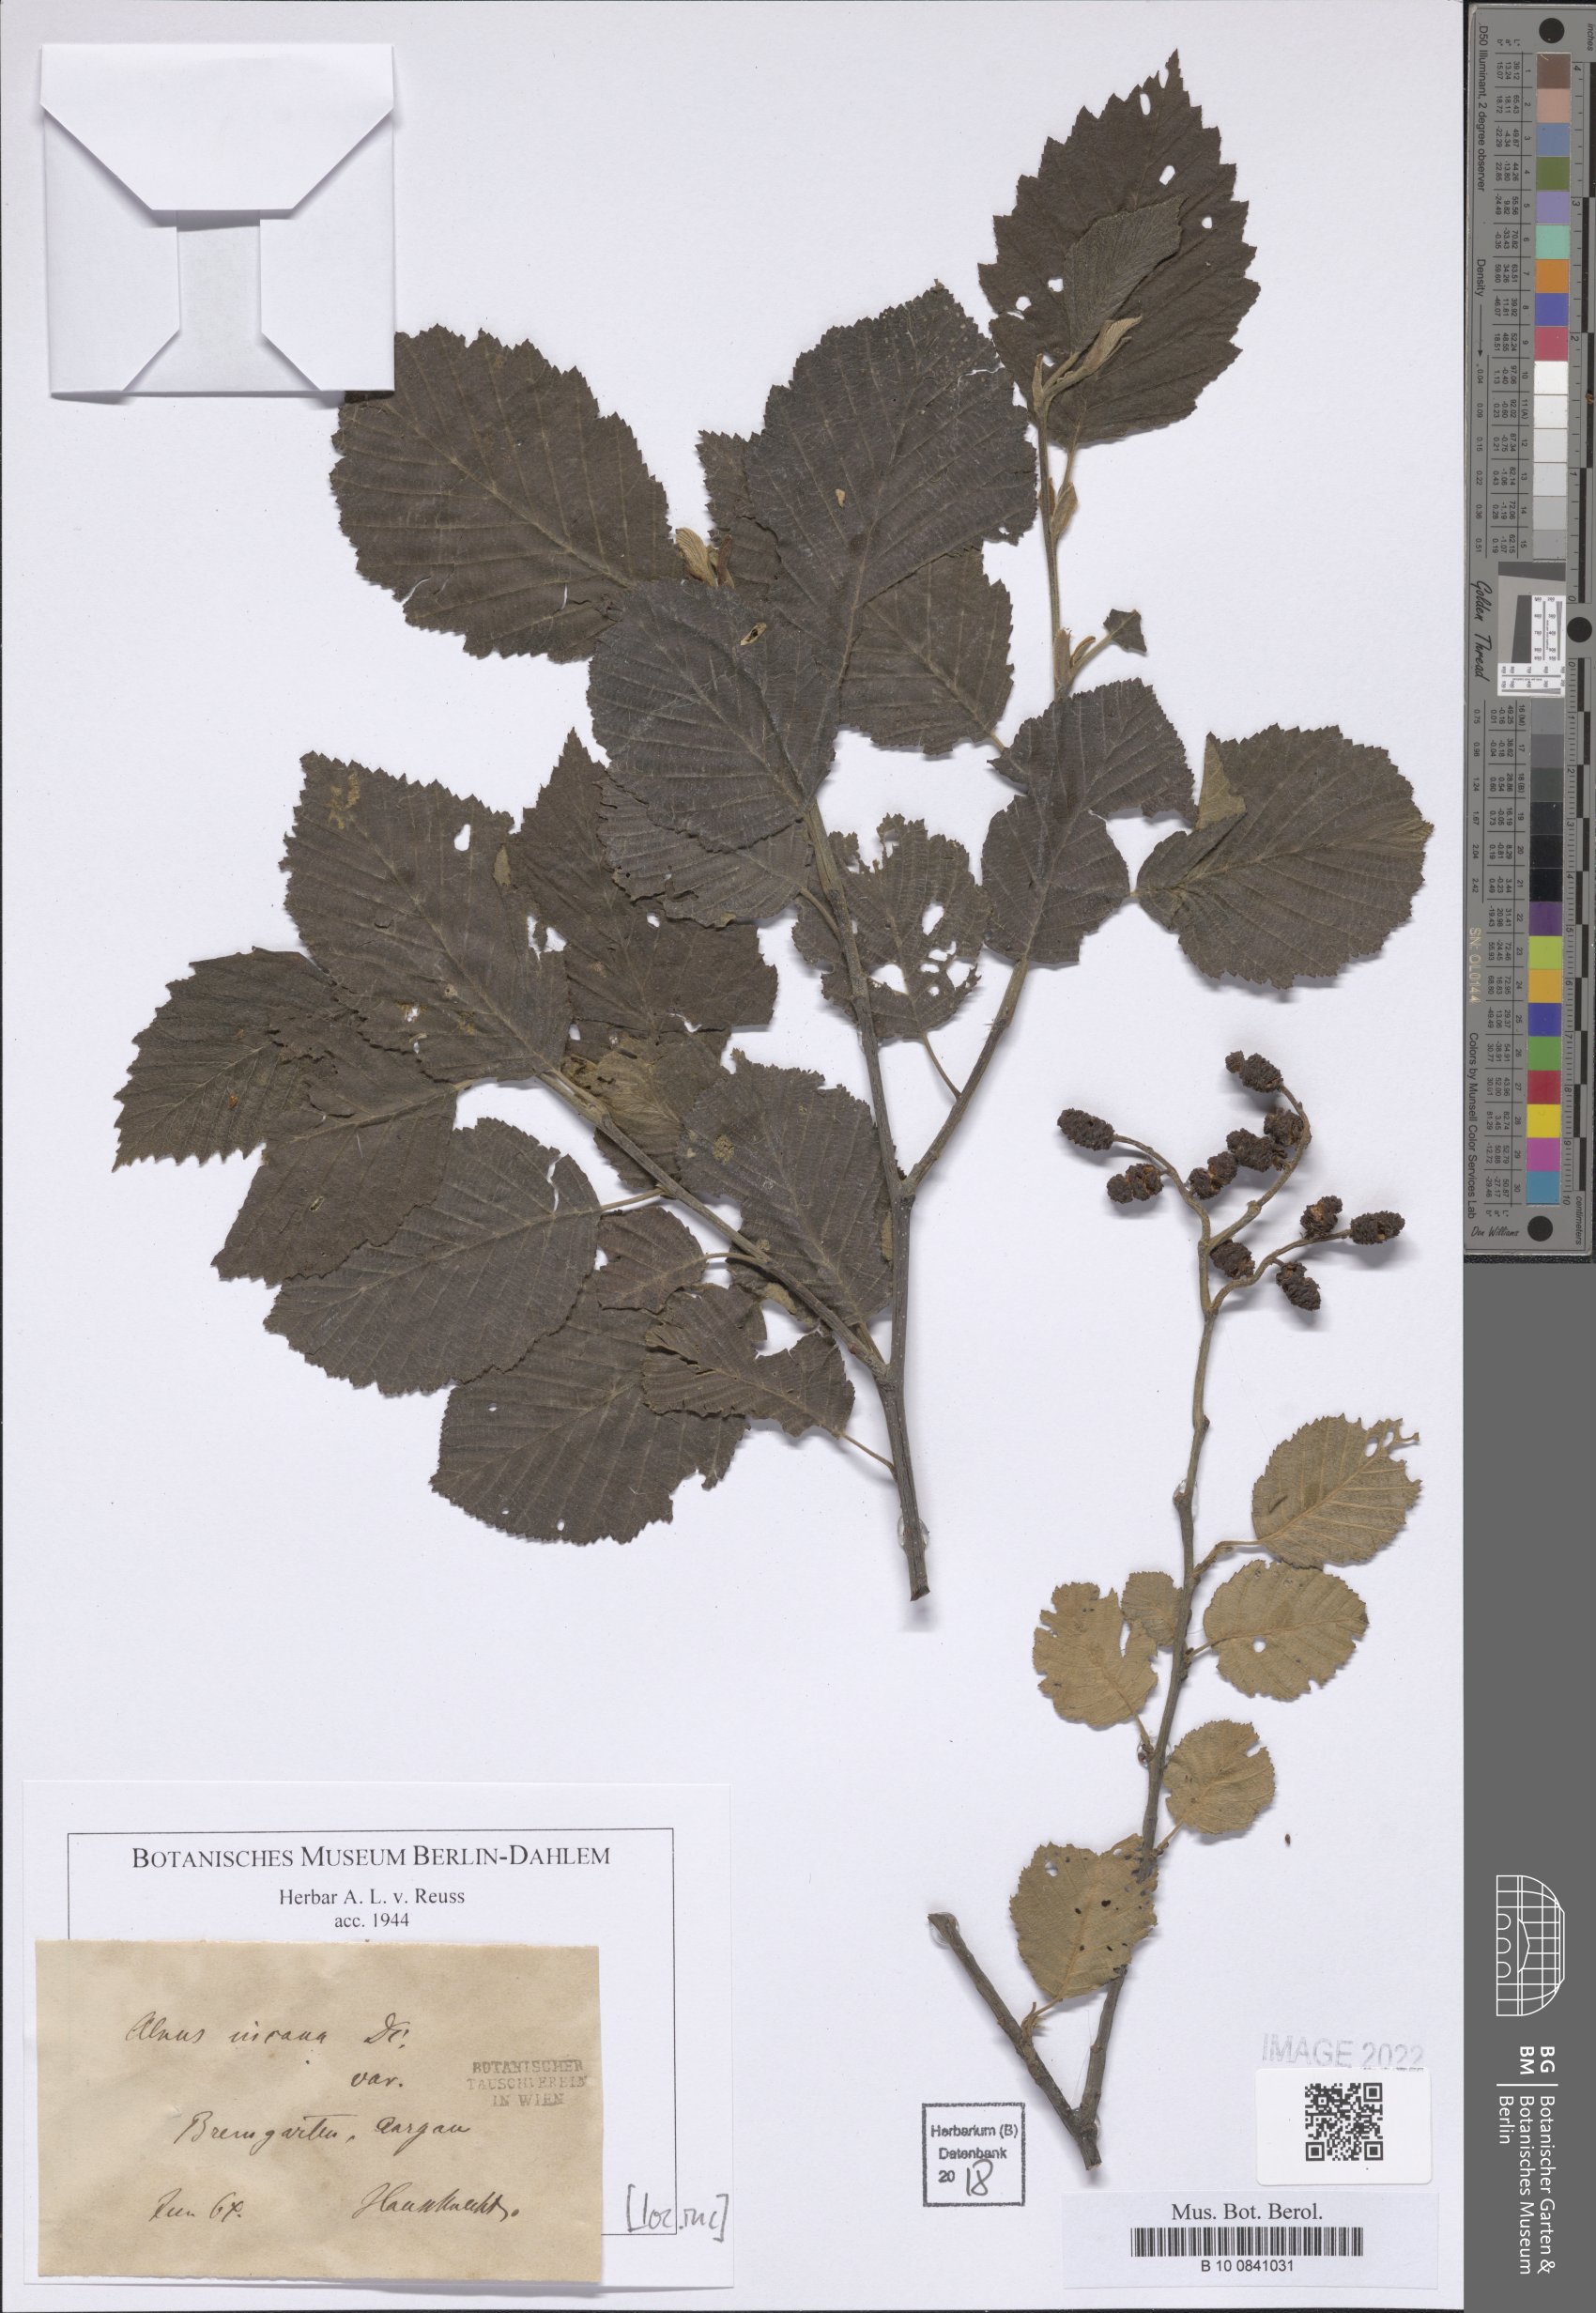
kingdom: Plantae
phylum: Tracheophyta
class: Magnoliopsida
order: Fagales
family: Betulaceae
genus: Alnus
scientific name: Alnus incana
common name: Grey alder
